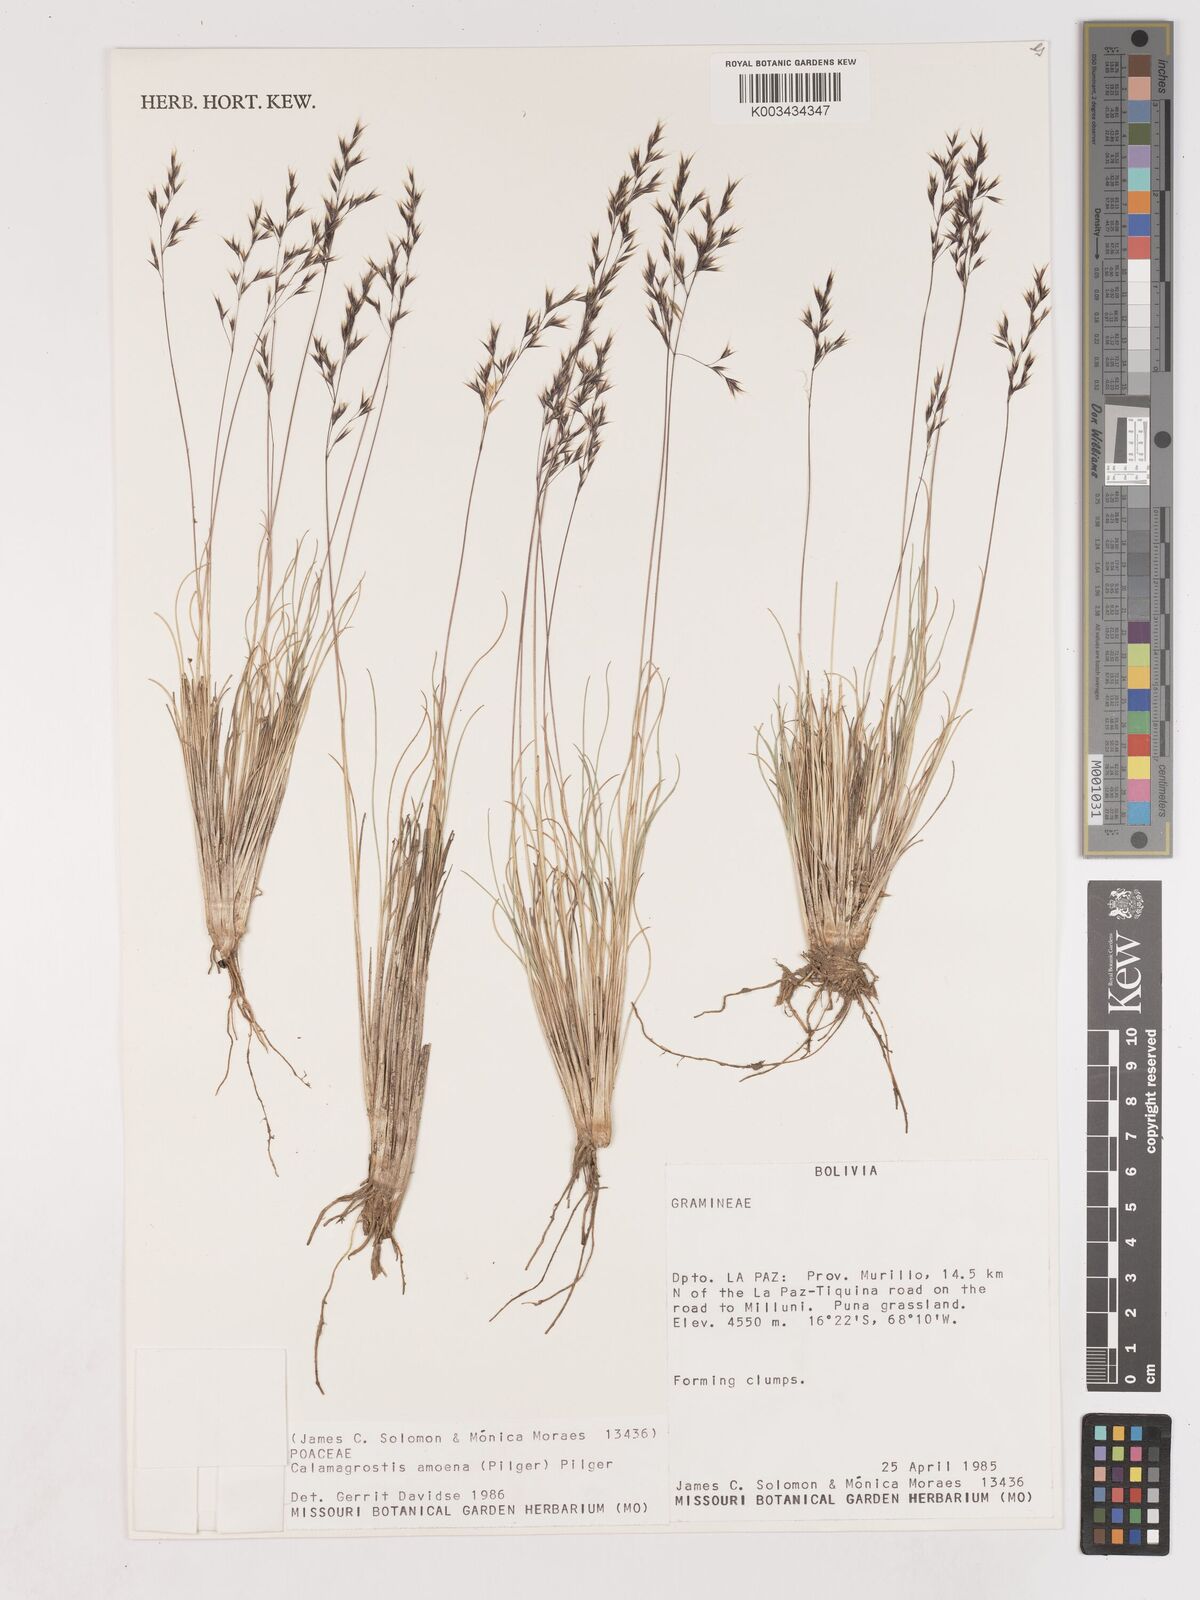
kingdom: Plantae
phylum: Tracheophyta
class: Liliopsida
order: Poales
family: Poaceae
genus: Cinnagrostis
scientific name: Cinnagrostis violacea
